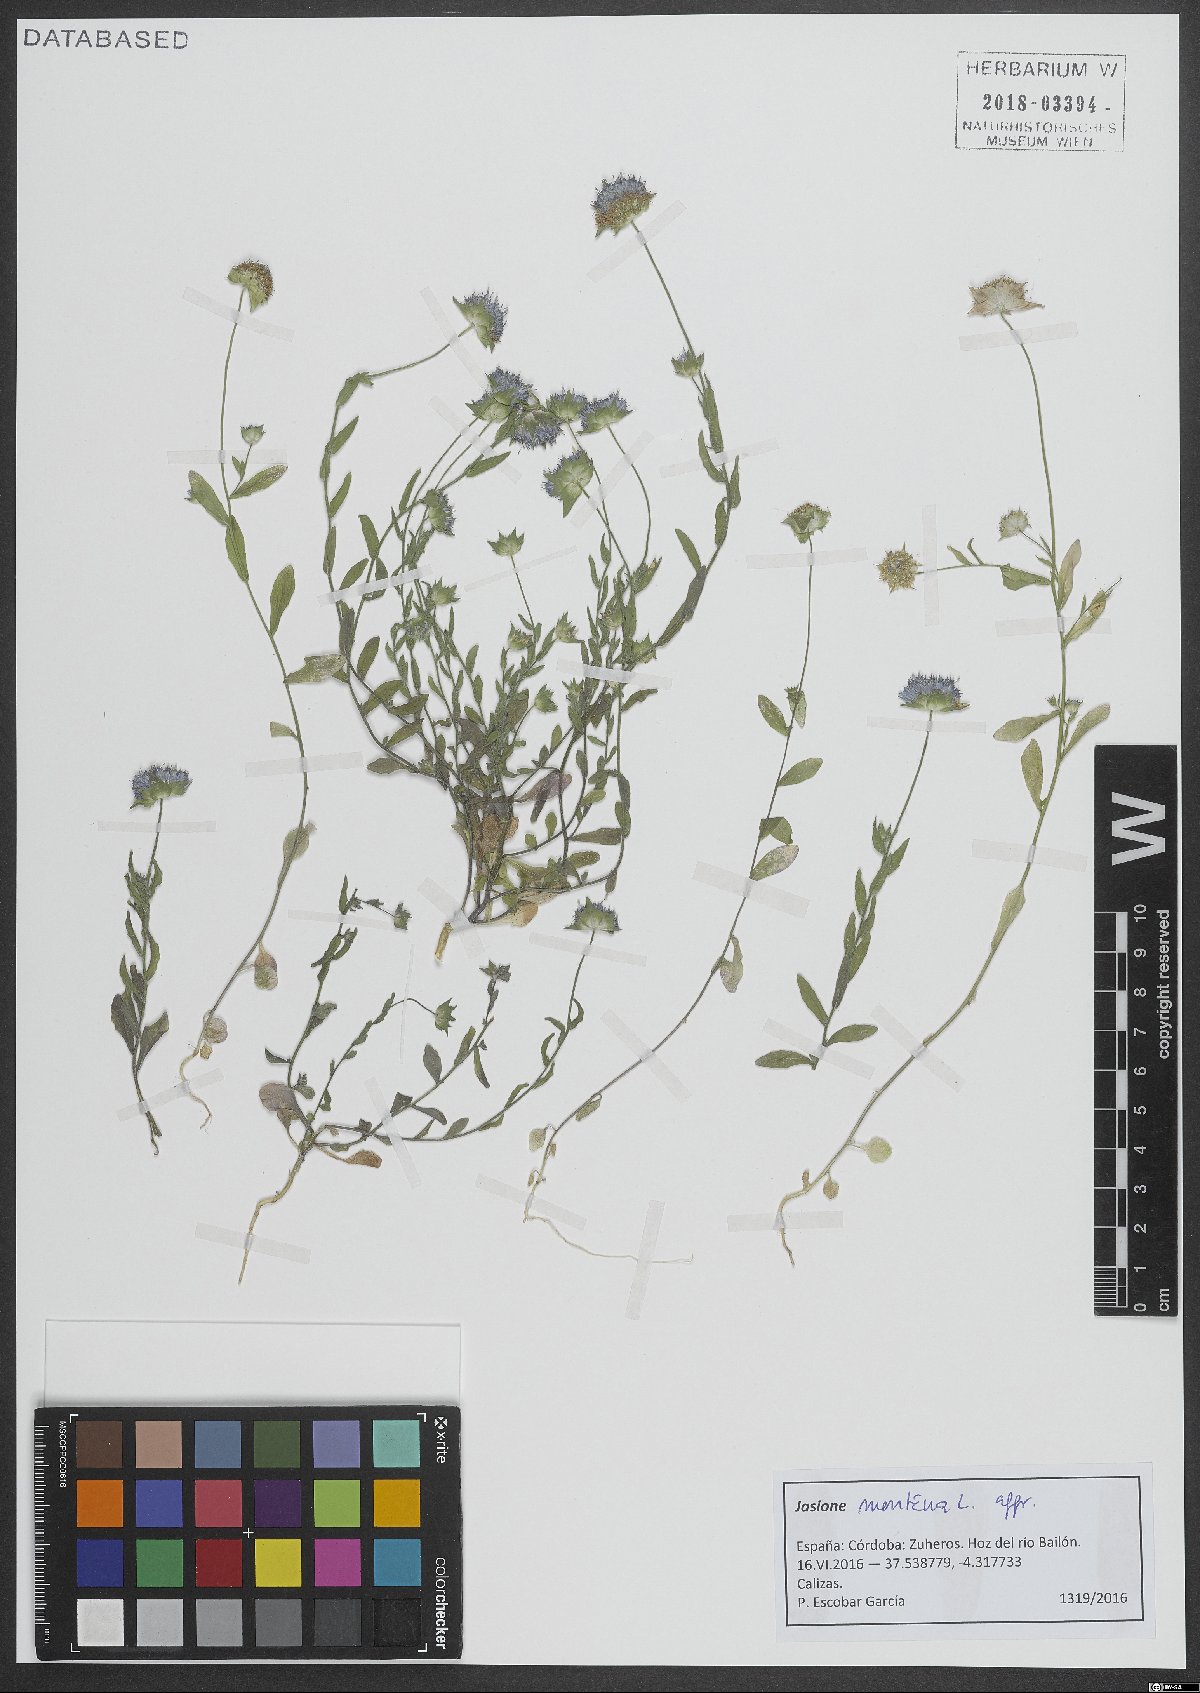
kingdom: Plantae
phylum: Tracheophyta
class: Magnoliopsida
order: Asterales
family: Campanulaceae
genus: Jasione
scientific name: Jasione montana
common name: Sheep's-bit
